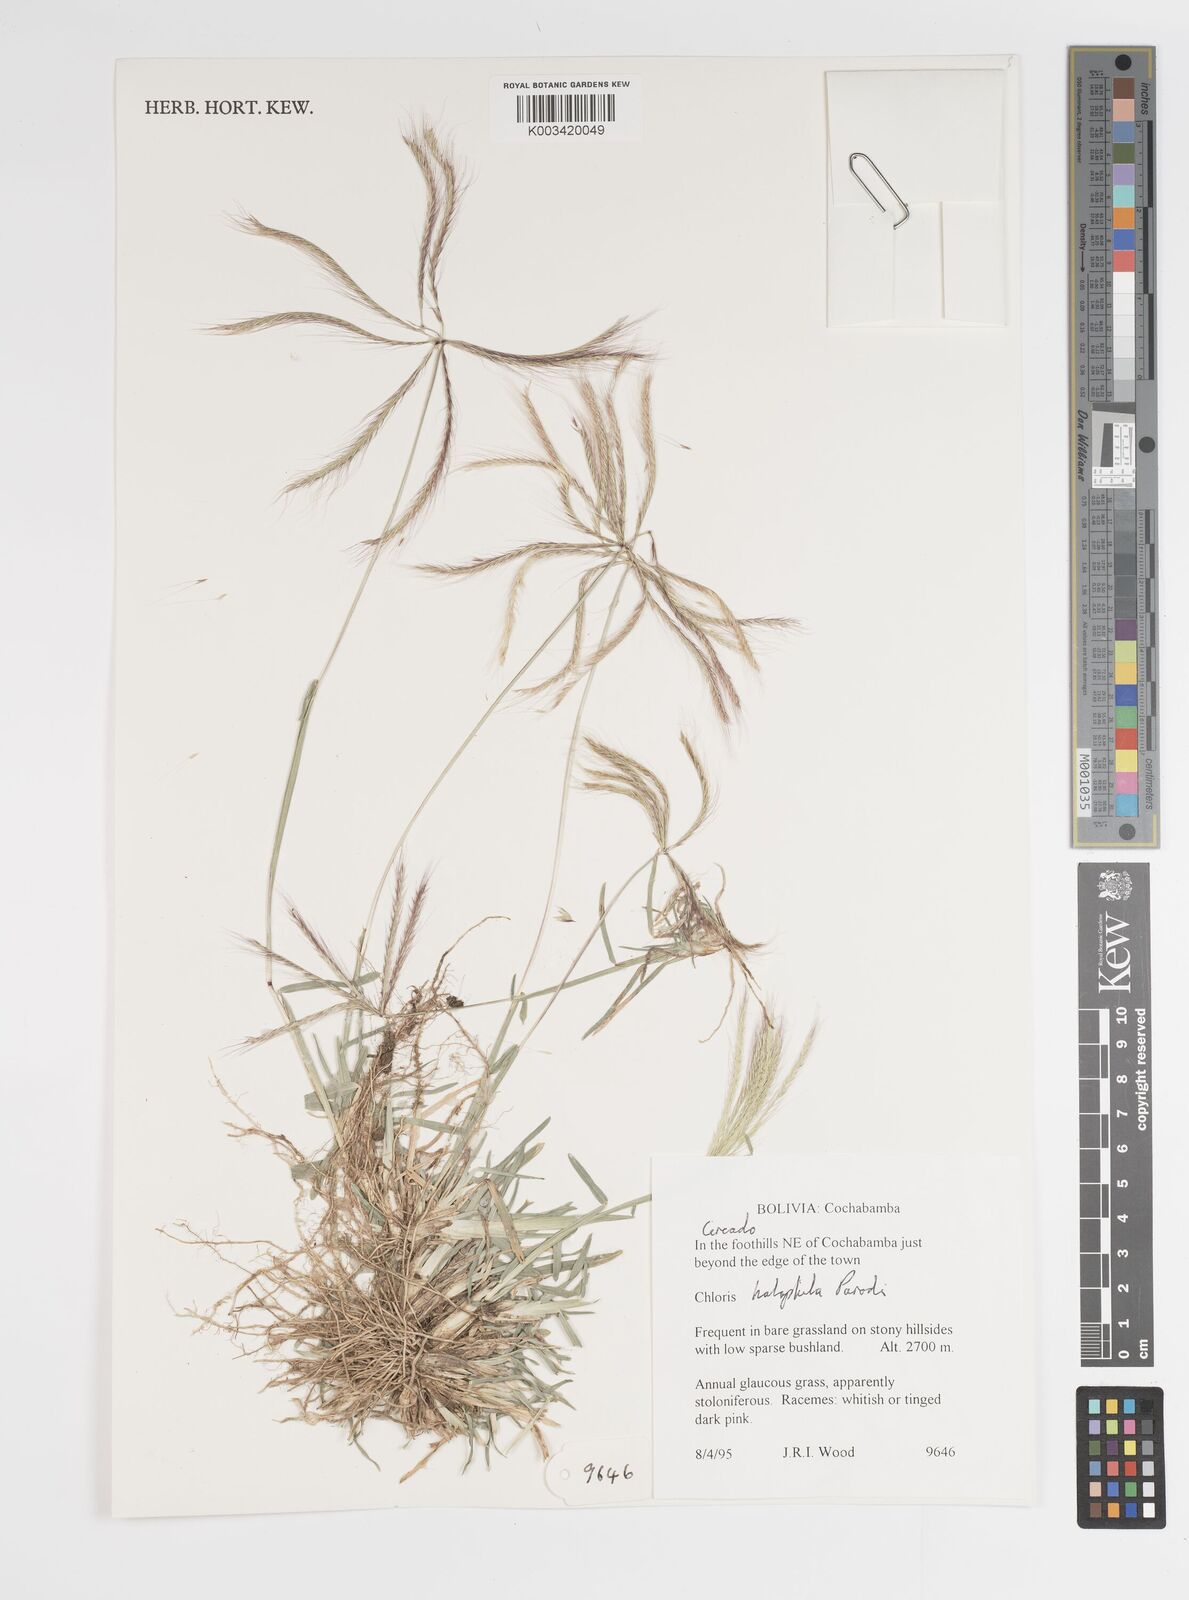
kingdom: Plantae
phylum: Tracheophyta
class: Liliopsida
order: Poales
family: Poaceae
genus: Chloris
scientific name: Chloris halophila
